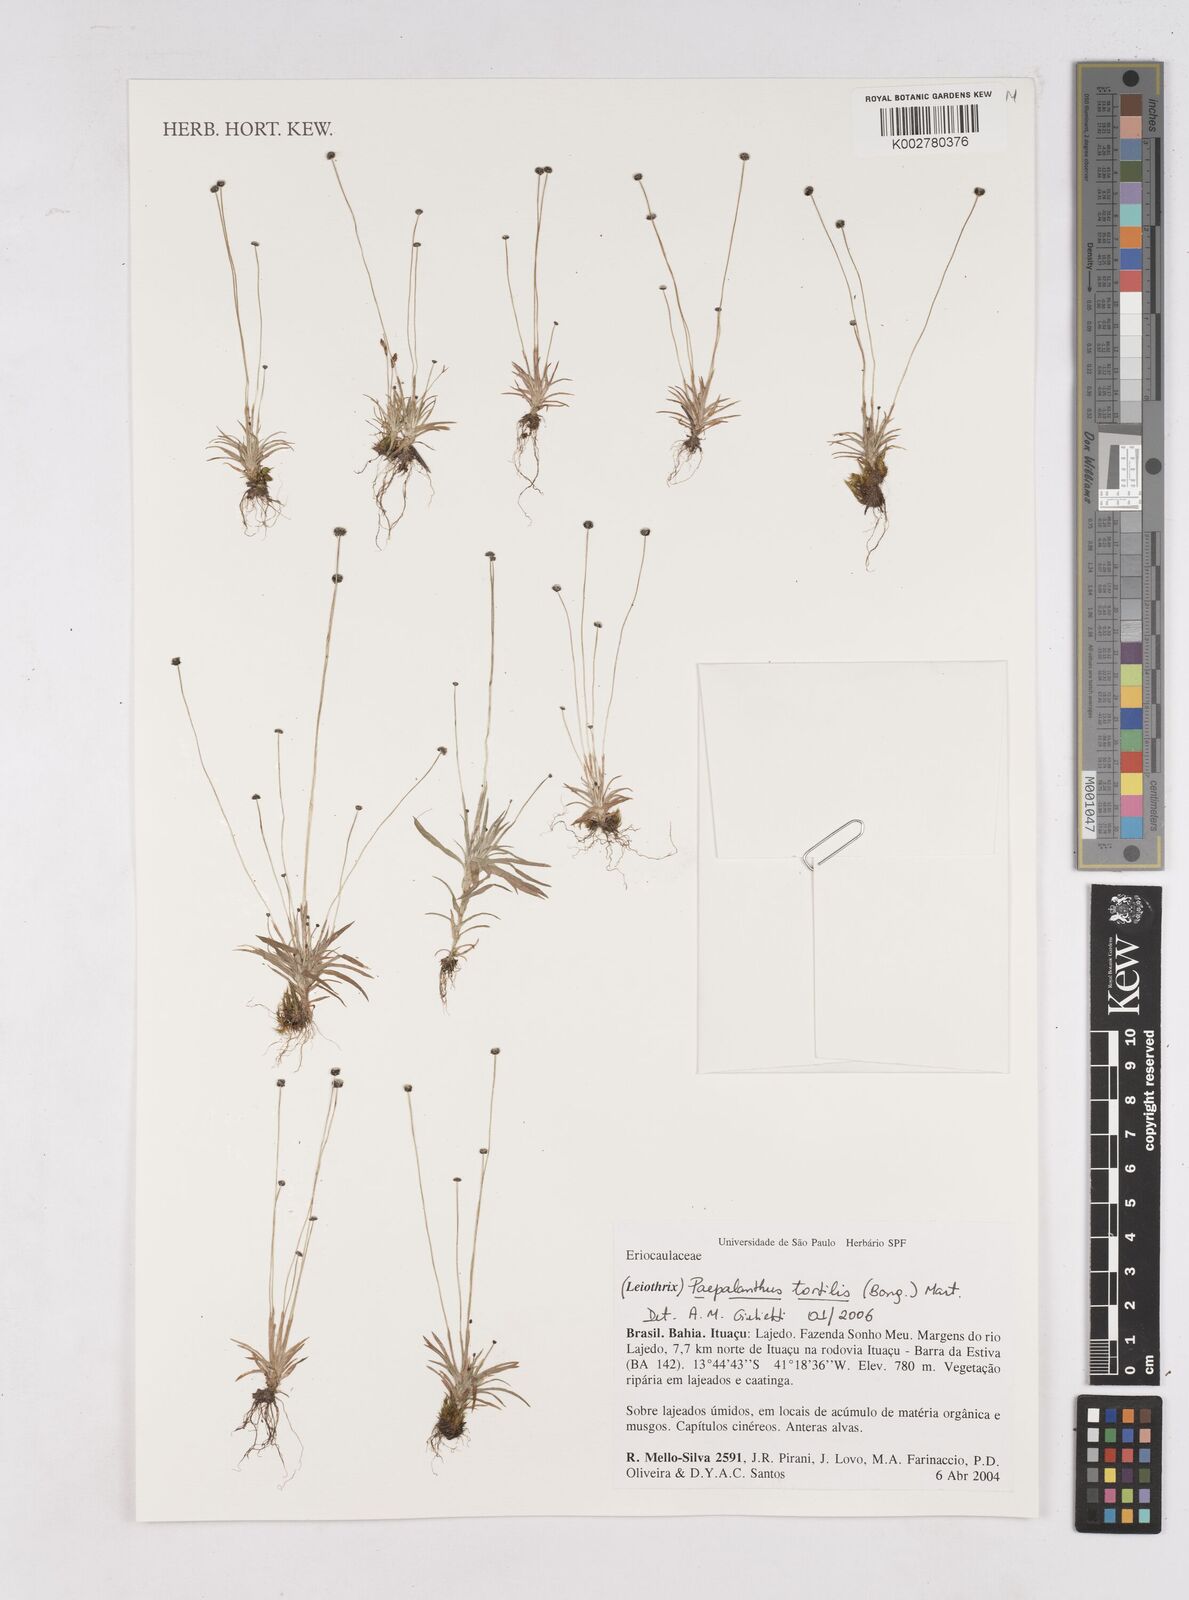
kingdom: Plantae
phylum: Tracheophyta
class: Liliopsida
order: Poales
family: Eriocaulaceae
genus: Paepalanthus
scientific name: Paepalanthus tortilis
